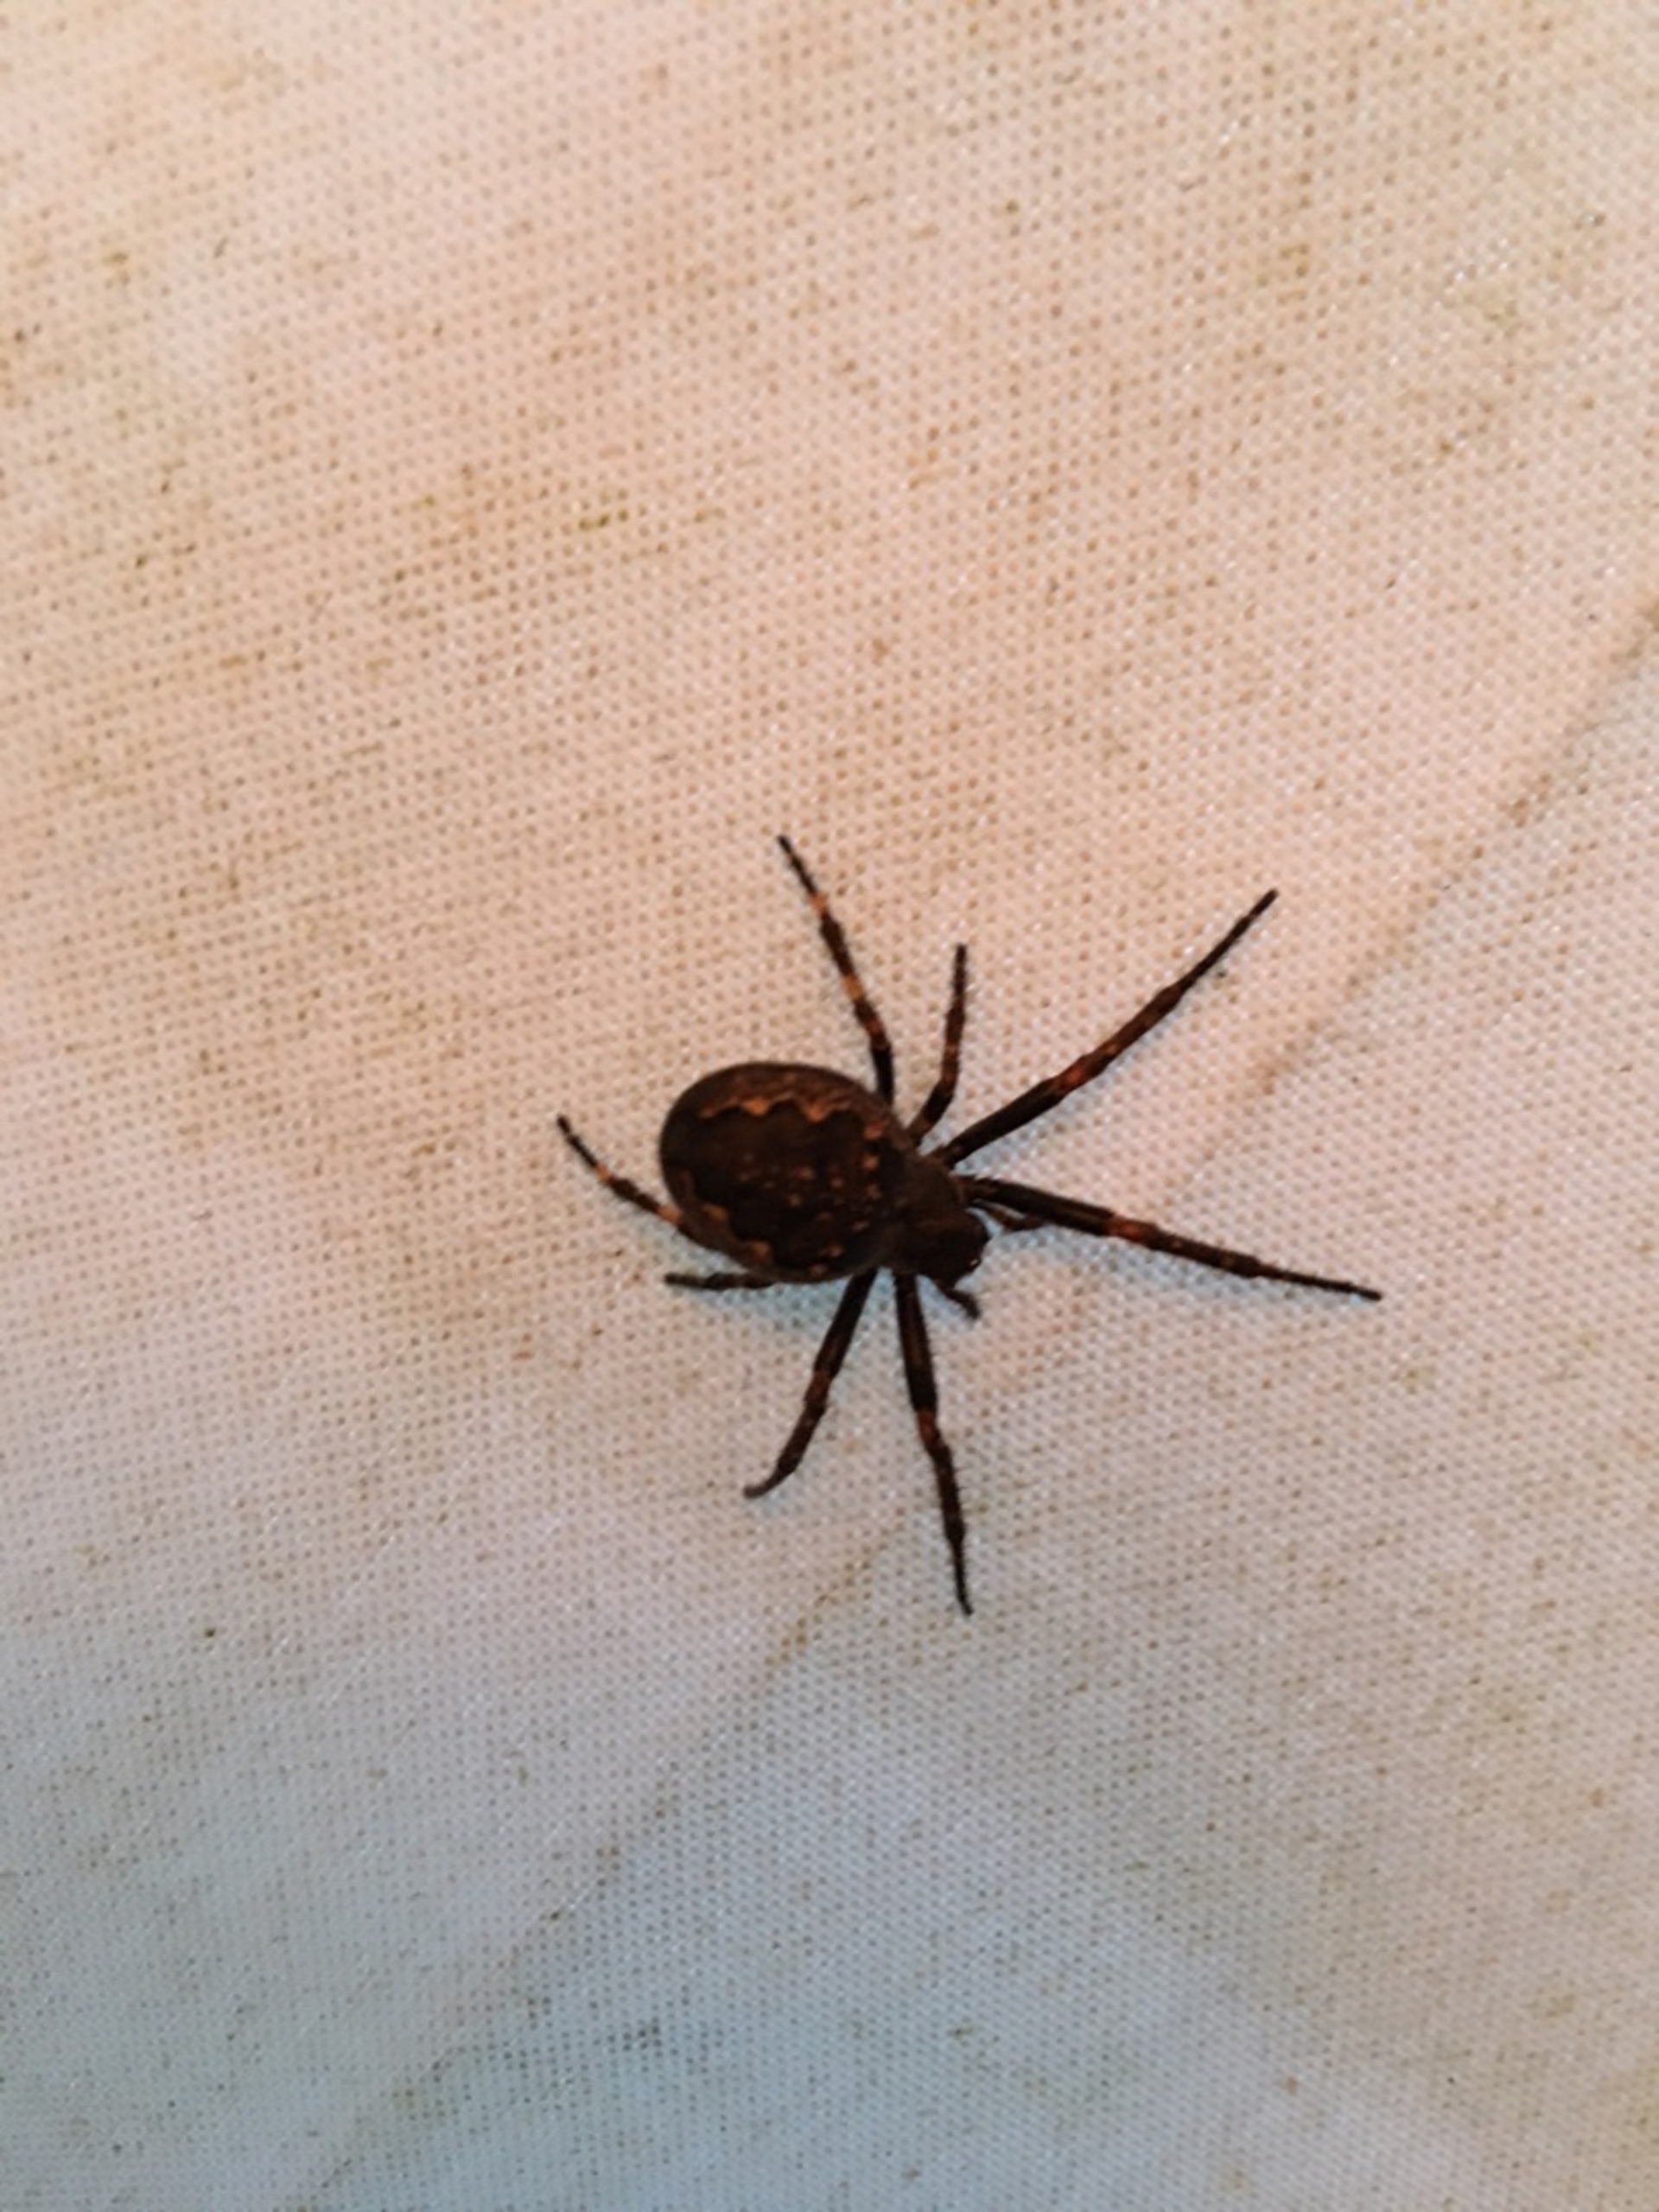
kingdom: Animalia
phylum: Arthropoda
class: Arachnida
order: Araneae
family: Araneidae
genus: Nuctenea
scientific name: Nuctenea umbratica
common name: Flad hjulspinder
